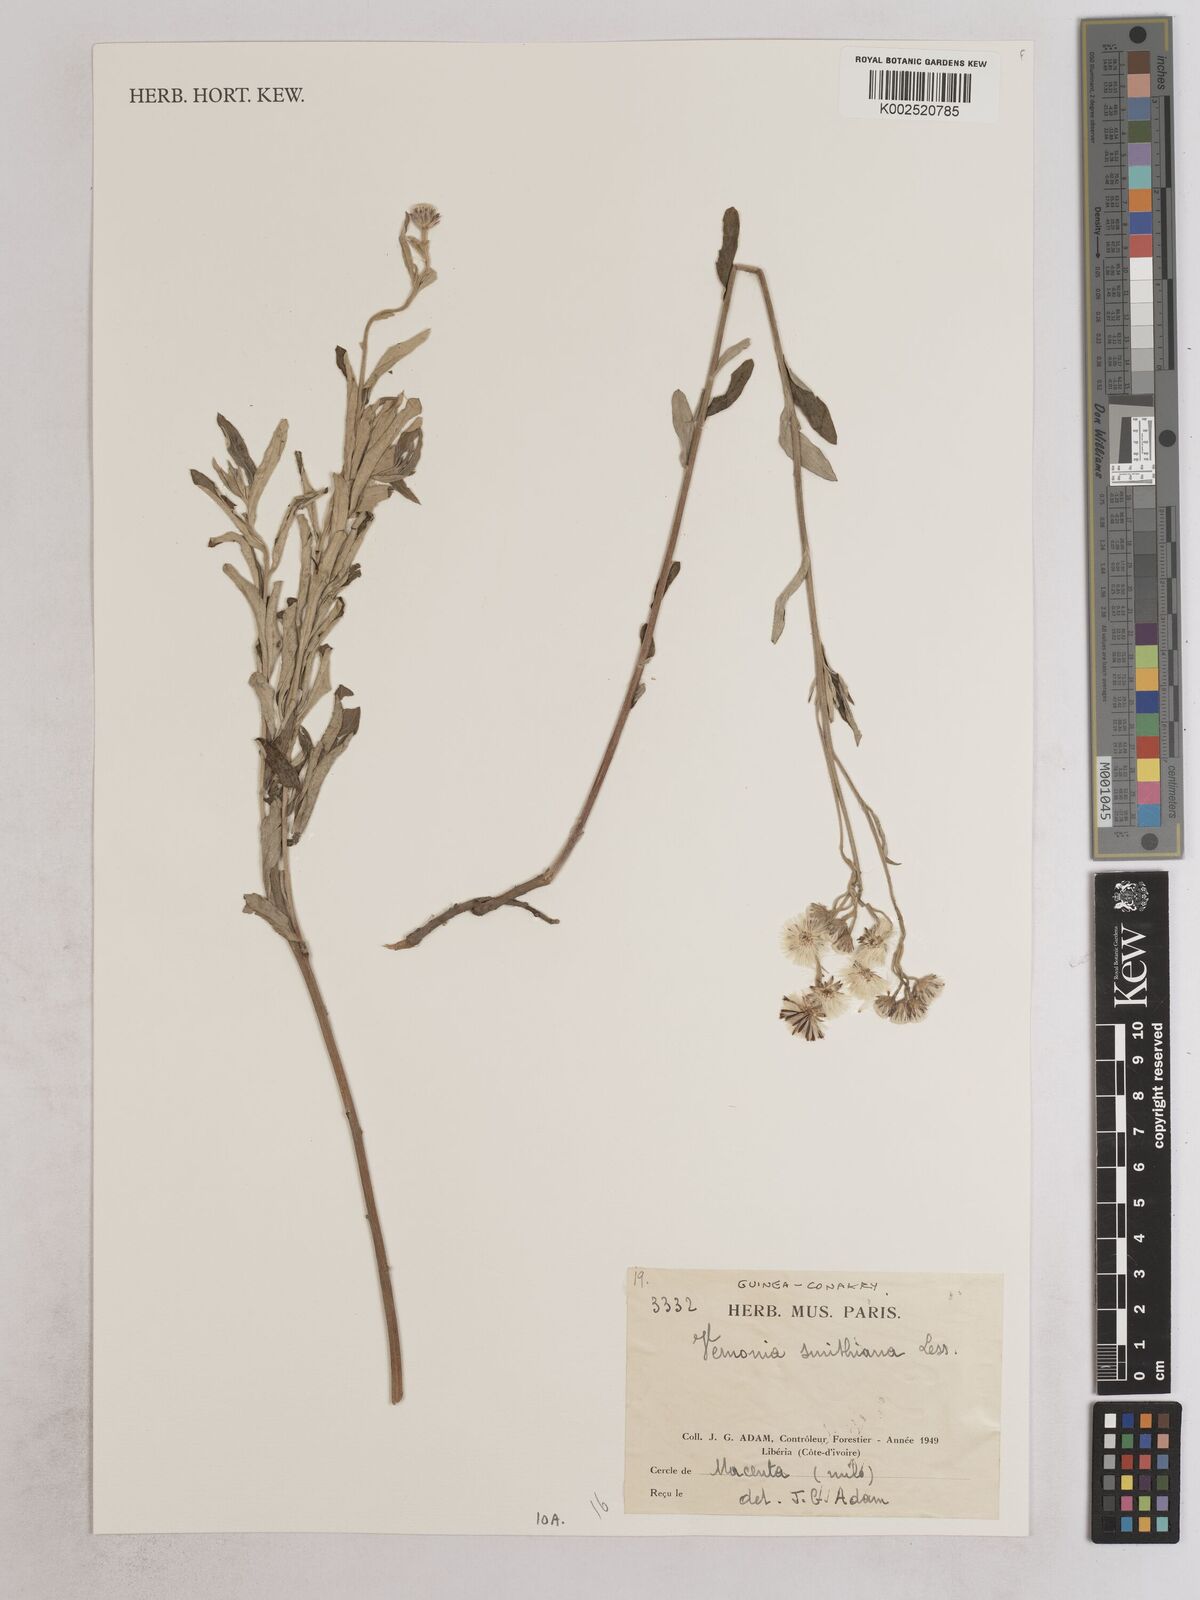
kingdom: Plantae
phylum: Tracheophyta
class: Magnoliopsida
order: Asterales
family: Asteraceae
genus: Hilliardiella
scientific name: Hilliardiella smithiana
